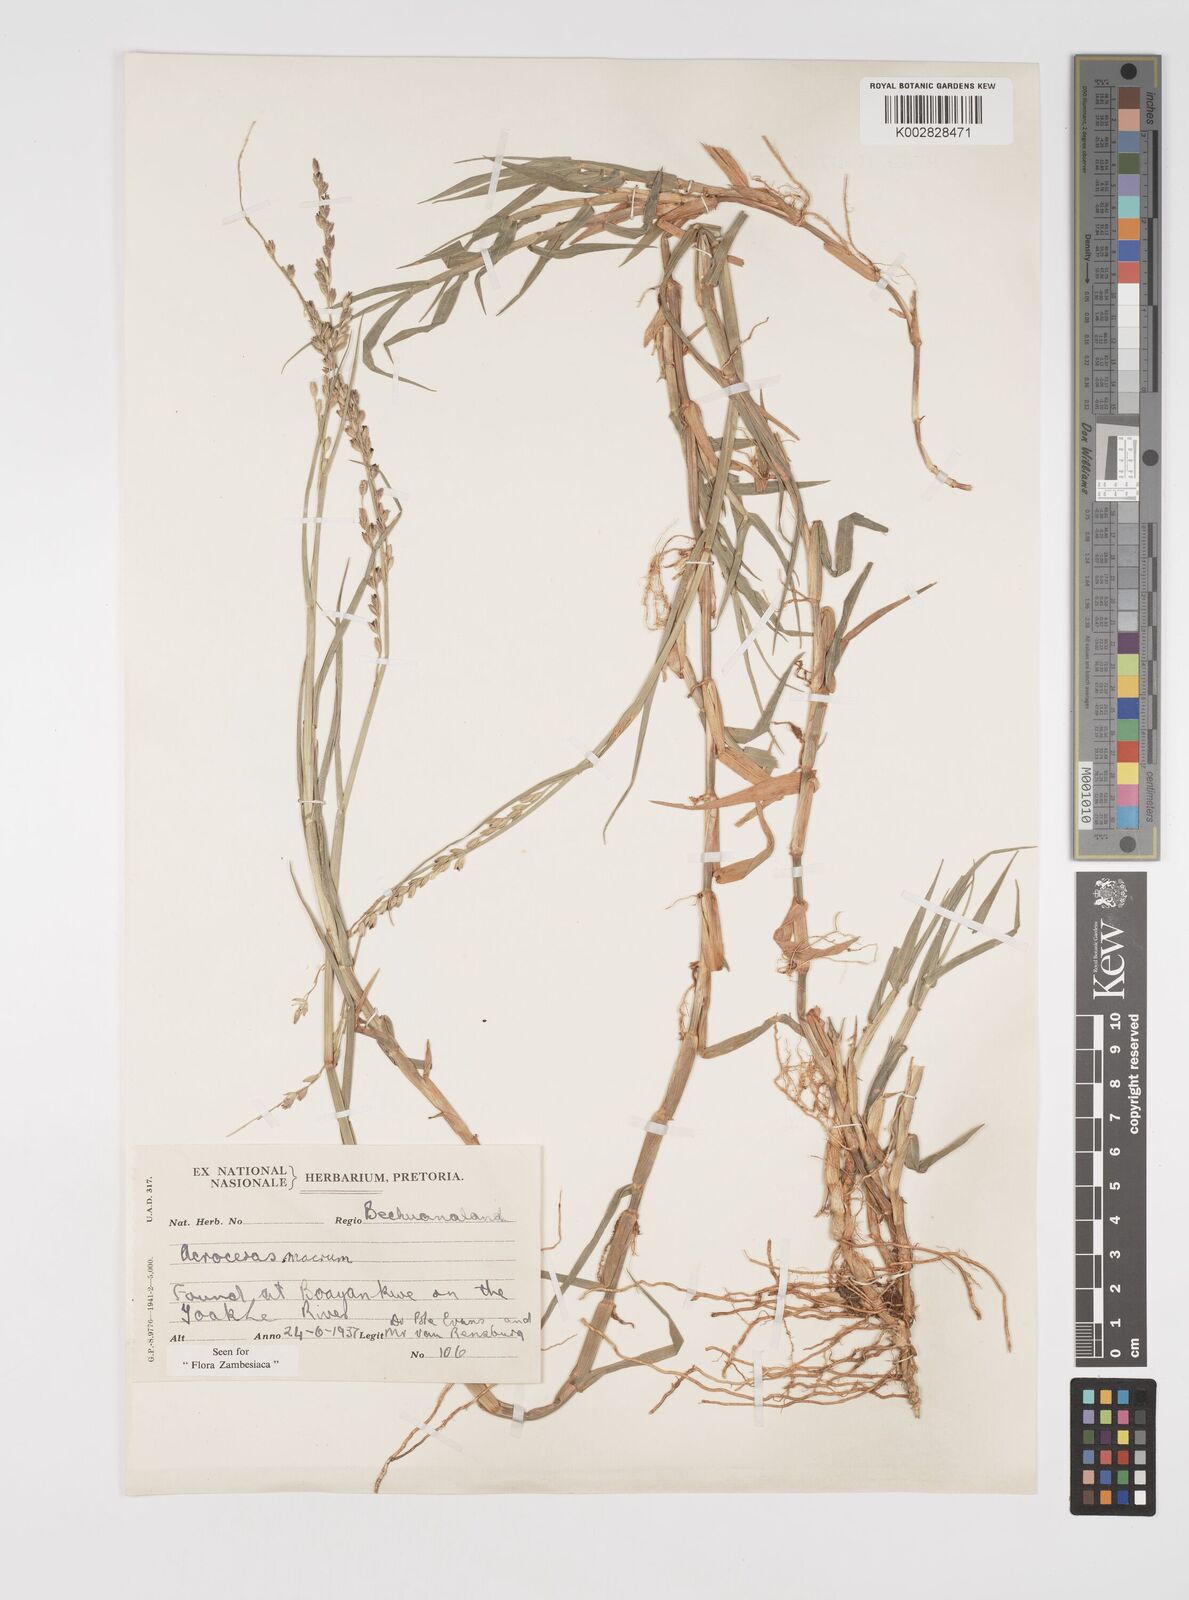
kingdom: Plantae
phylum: Tracheophyta
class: Liliopsida
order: Poales
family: Poaceae
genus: Acroceras
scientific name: Acroceras macrum
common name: Nyl grass
